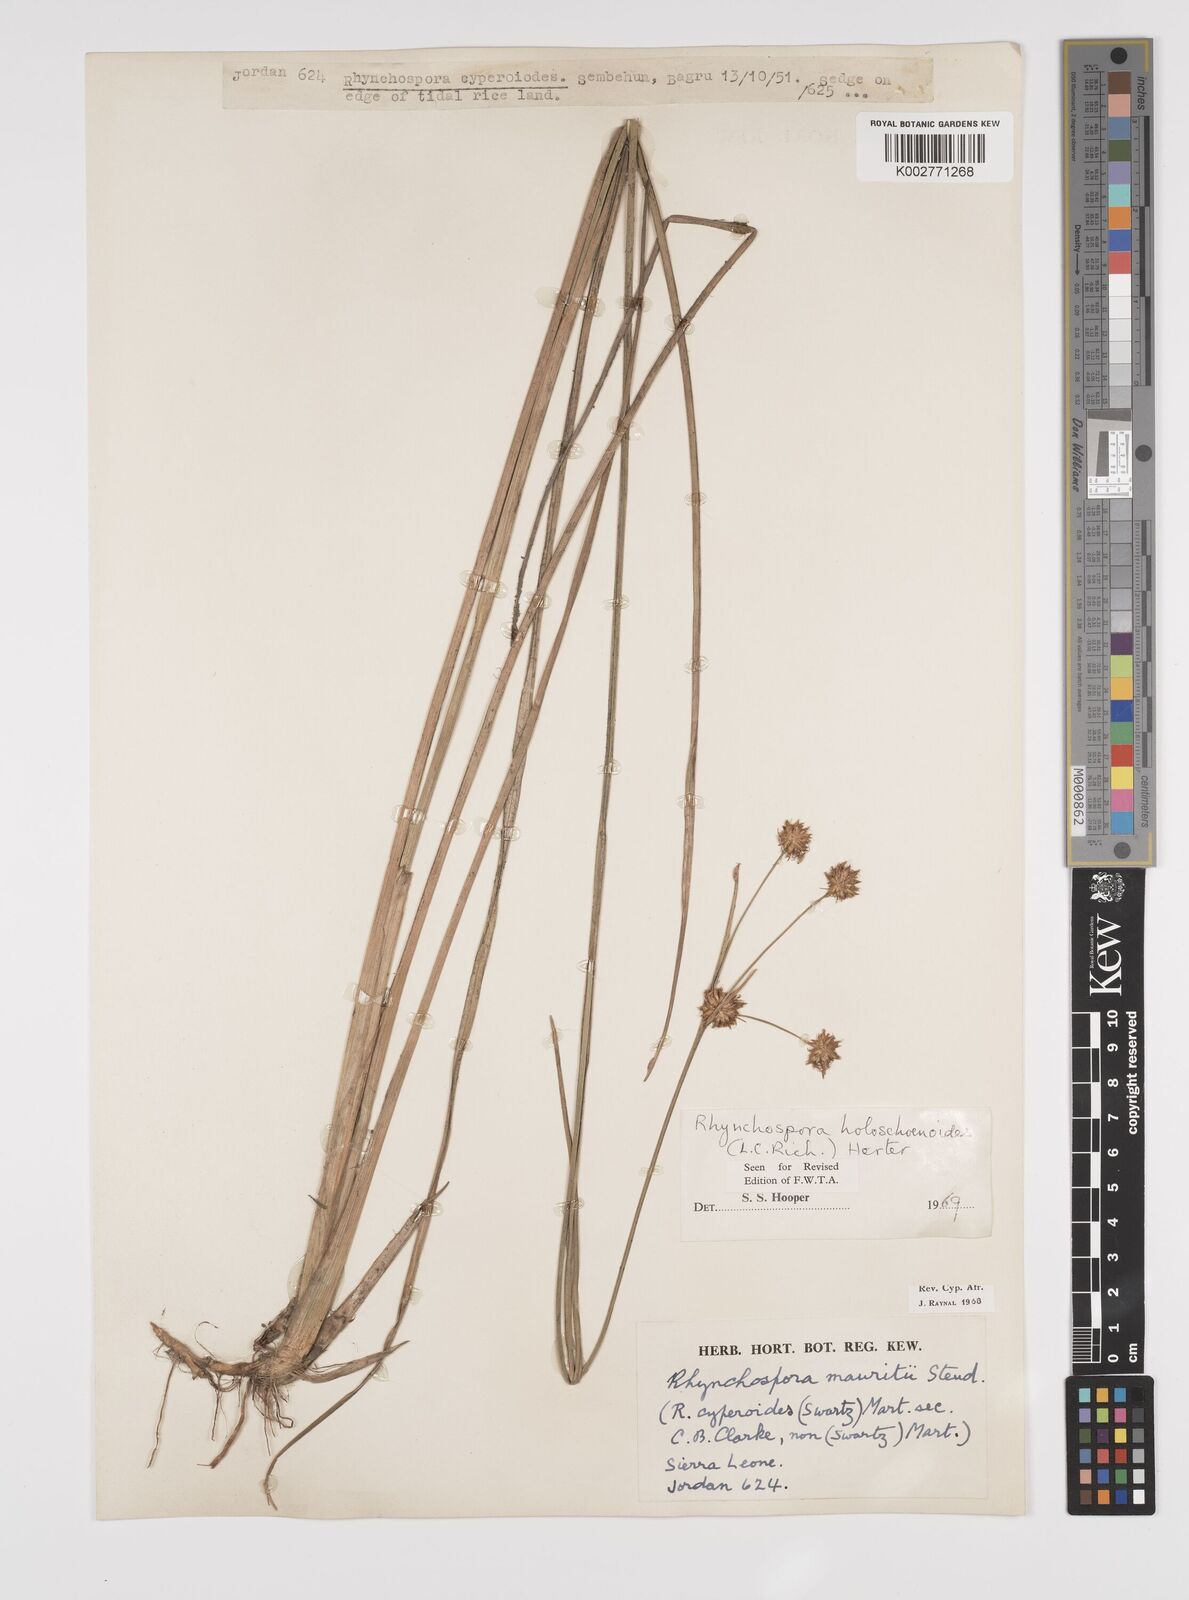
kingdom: Plantae
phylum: Tracheophyta
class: Liliopsida
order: Poales
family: Cyperaceae
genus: Rhynchospora
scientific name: Rhynchospora holoschoenoides
